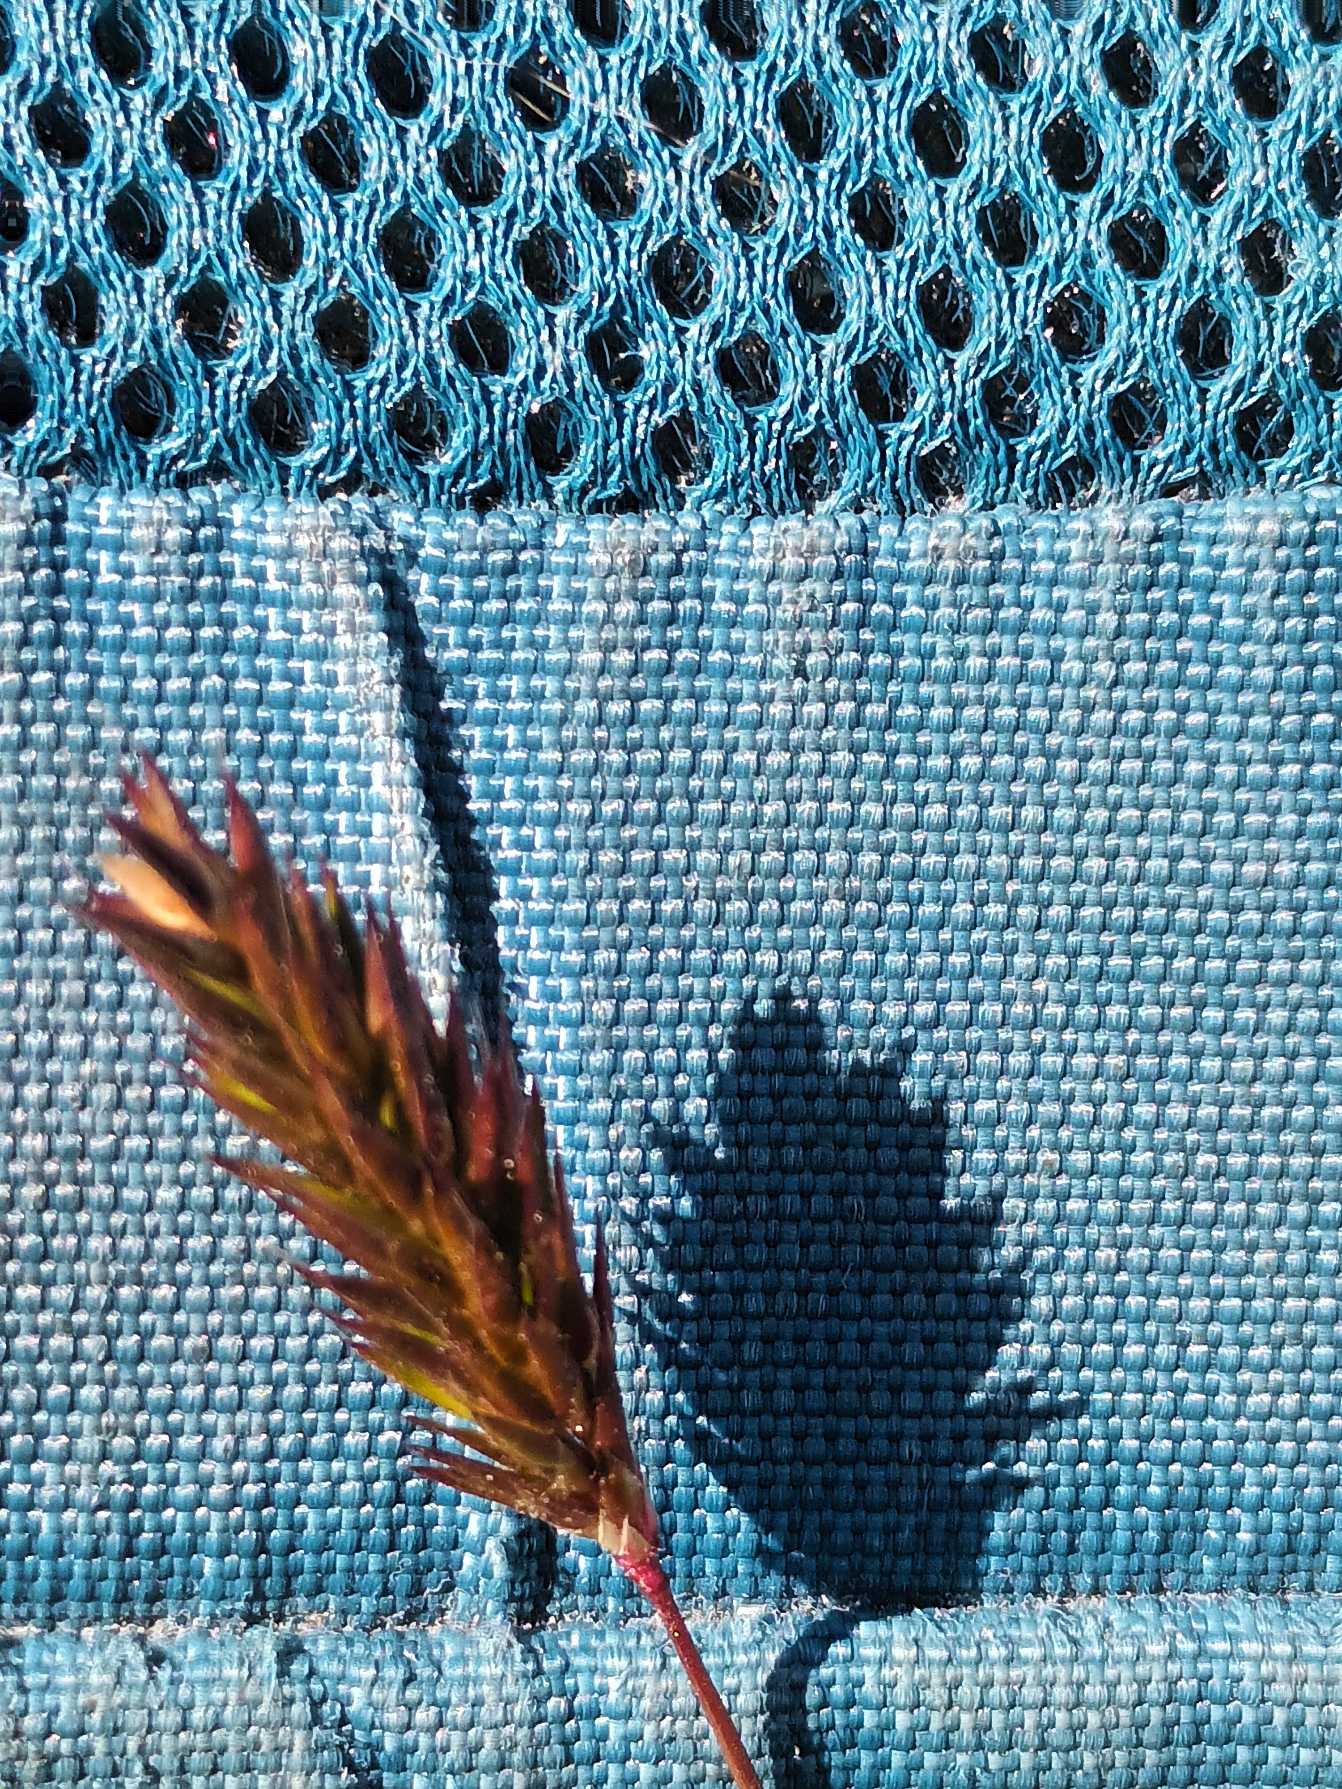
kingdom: Plantae
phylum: Tracheophyta
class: Liliopsida
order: Poales
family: Poaceae
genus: Anthoxanthum
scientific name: Anthoxanthum odoratum
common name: Vellugtende gulaks
